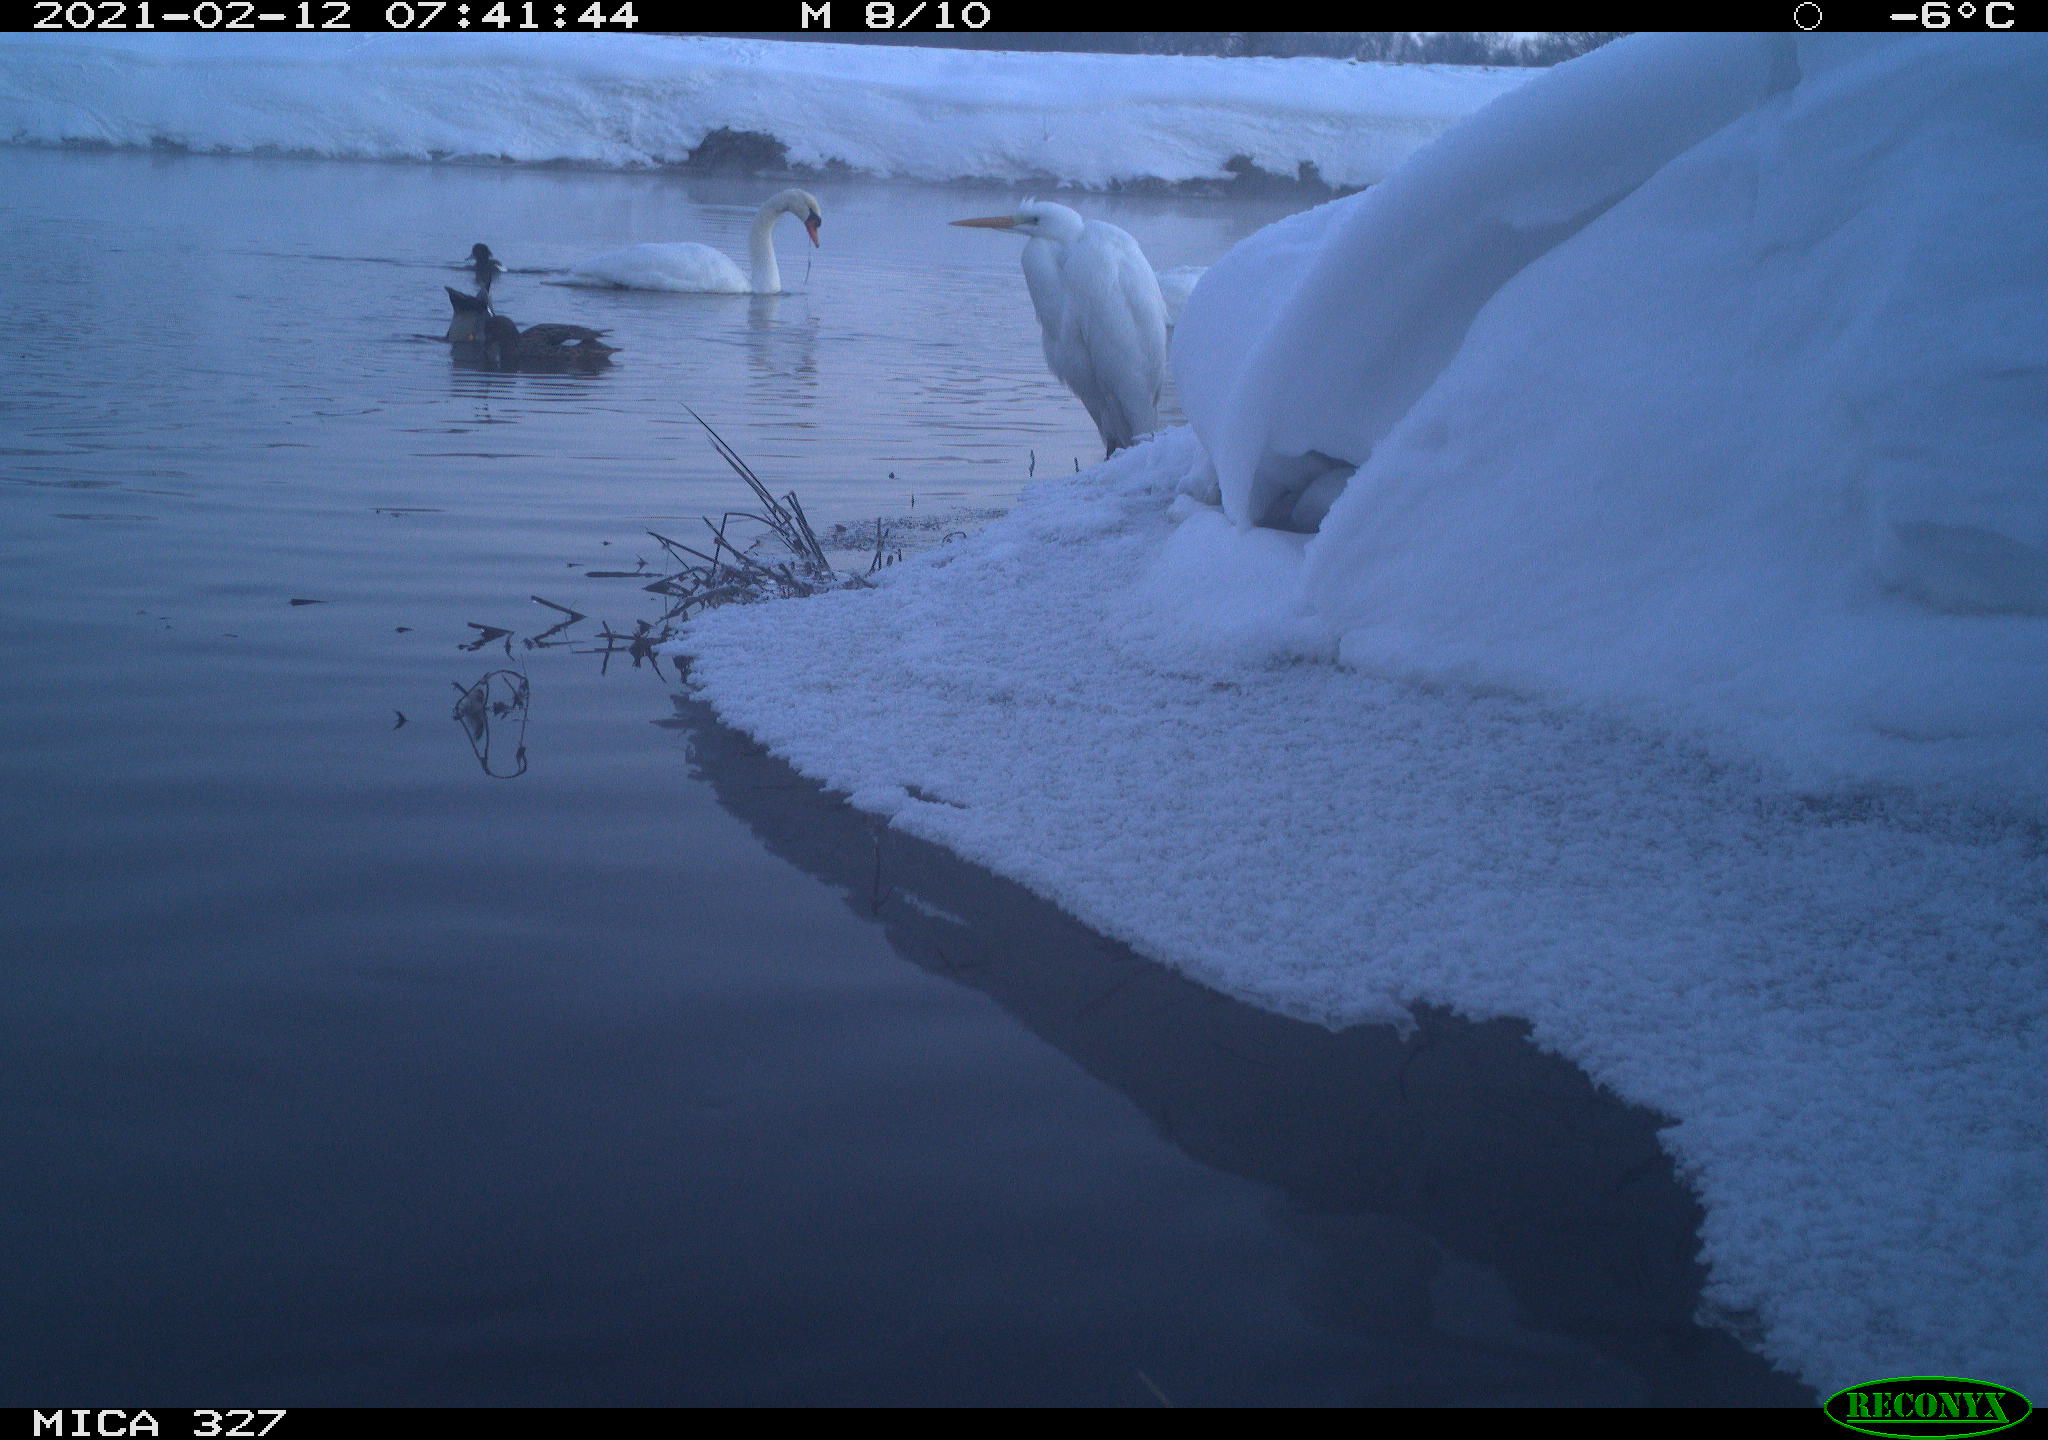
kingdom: Animalia
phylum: Chordata
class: Aves
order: Anseriformes
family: Anatidae
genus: Anas
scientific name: Anas
